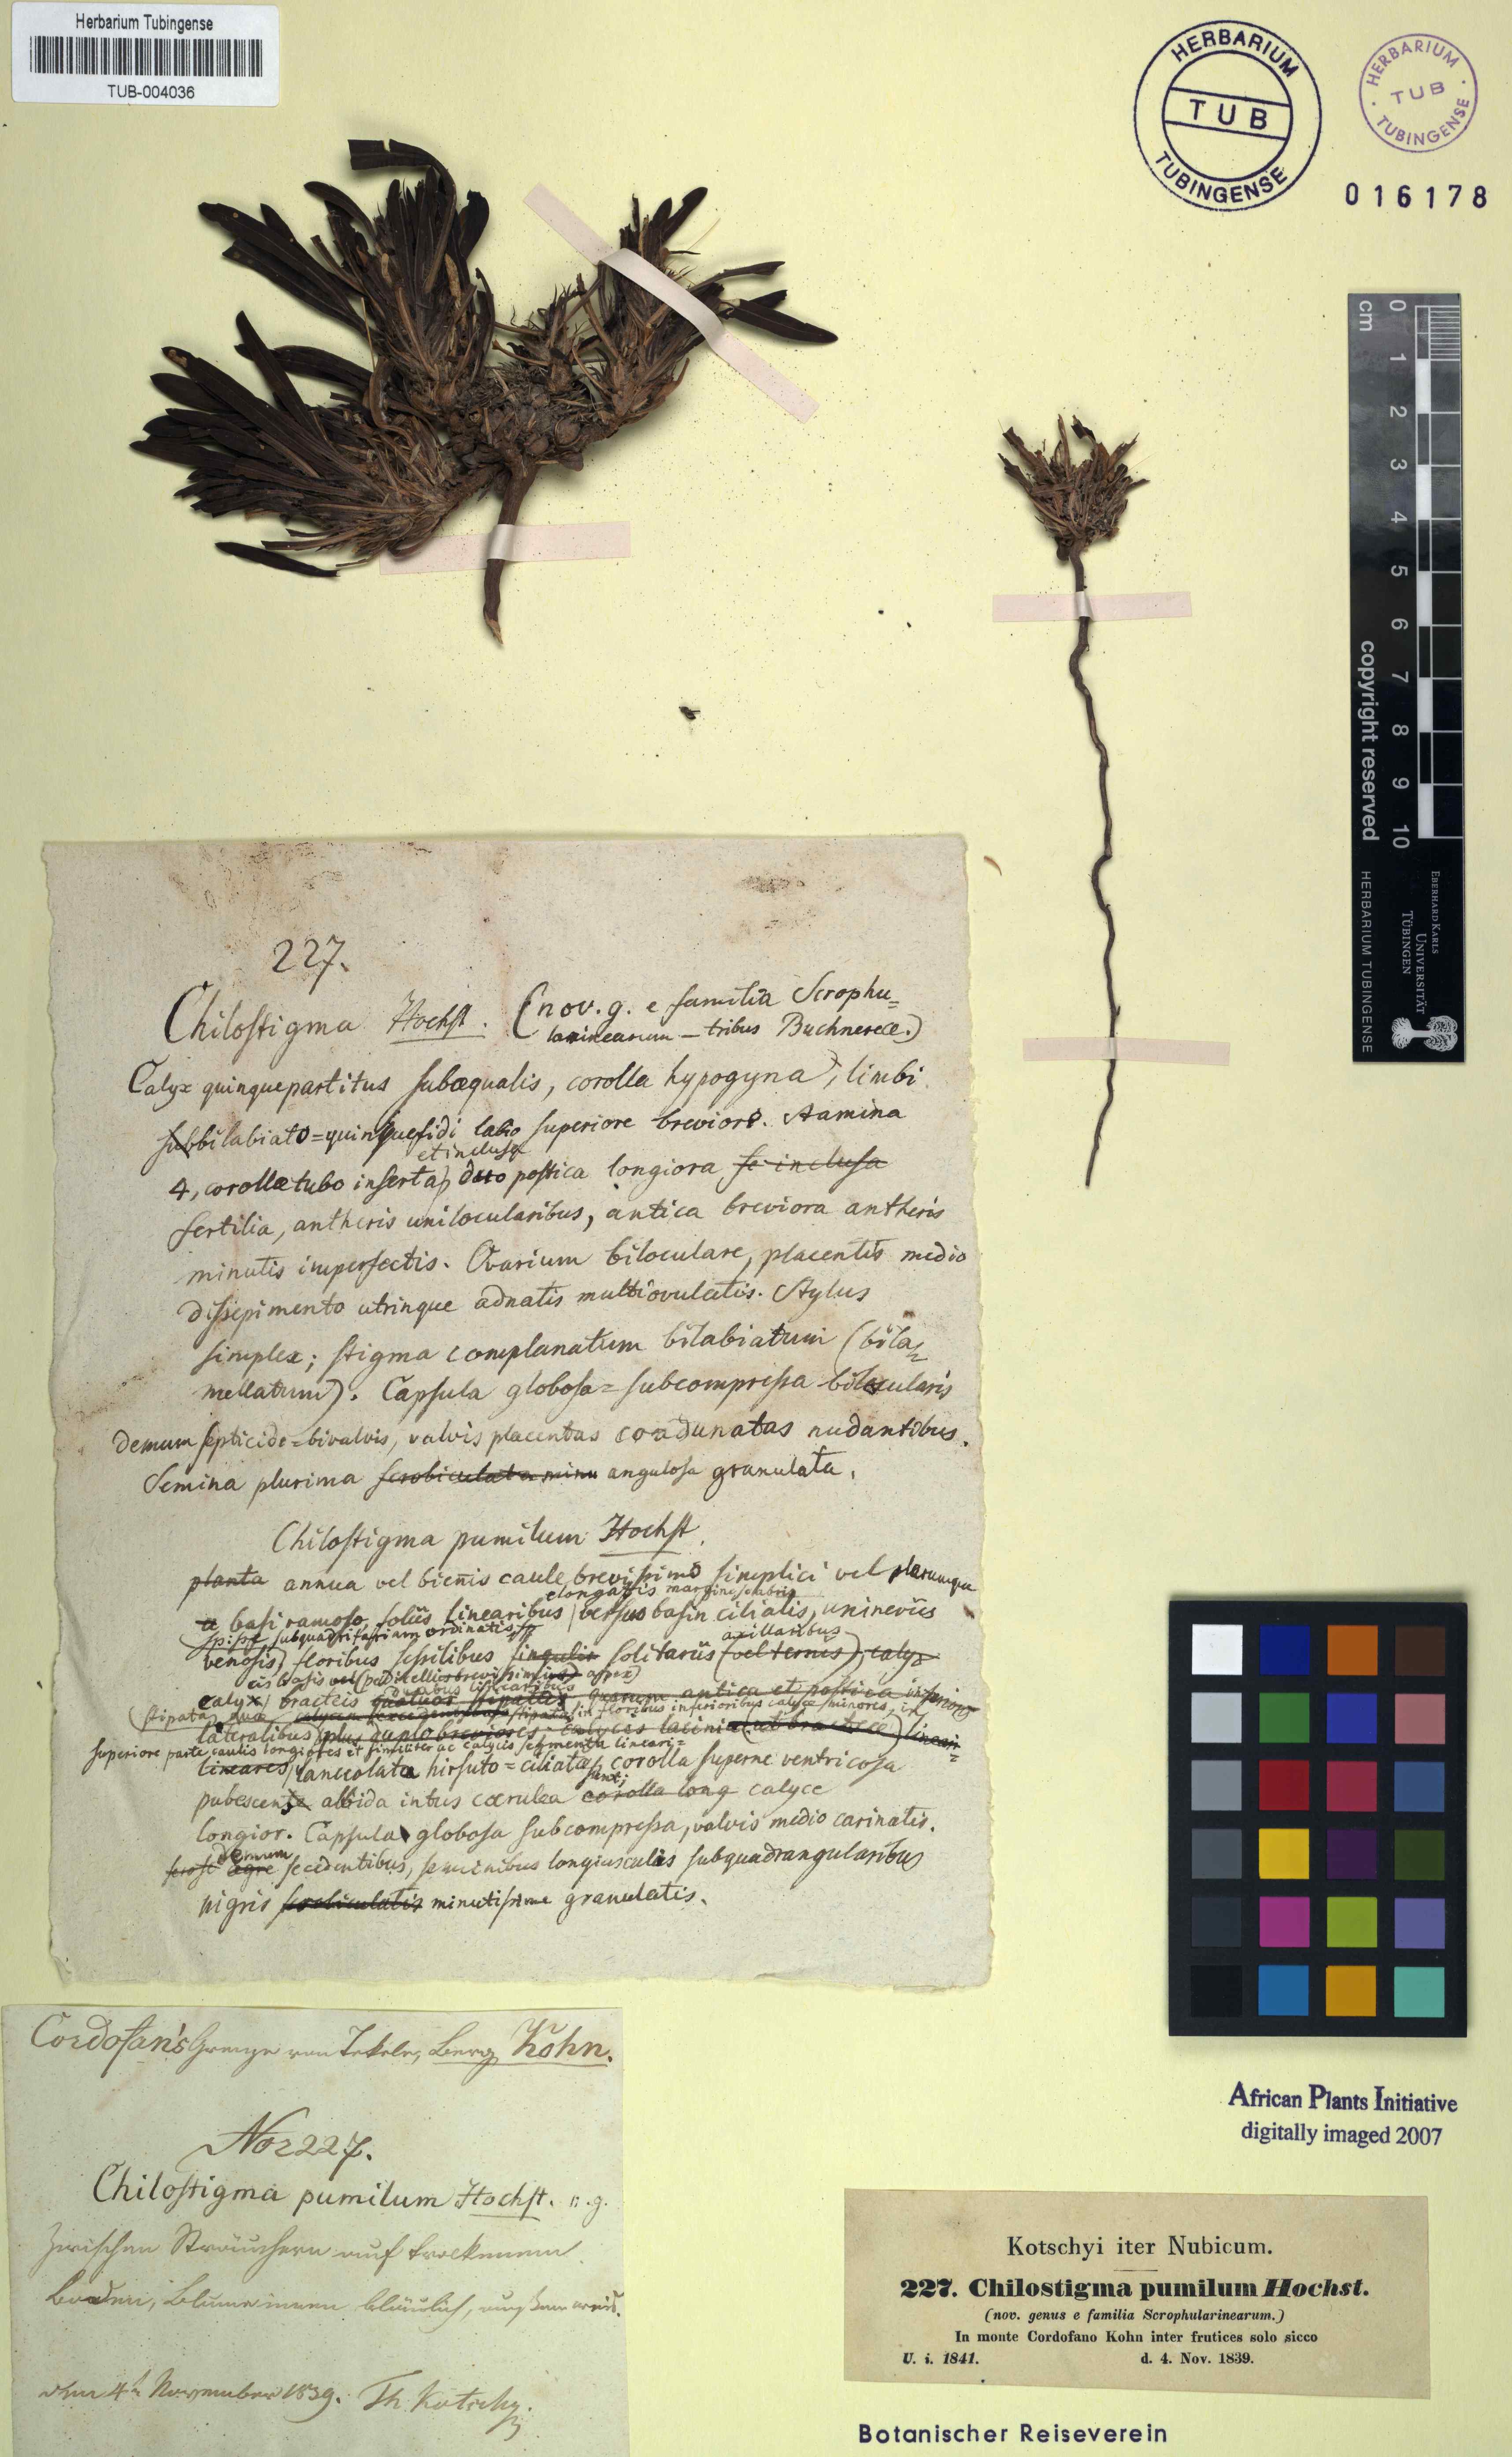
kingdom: Plantae
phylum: Tracheophyta
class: Magnoliopsida
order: Lamiales
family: Scrophulariaceae
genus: Aptosimum
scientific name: Aptosimum pumilum
